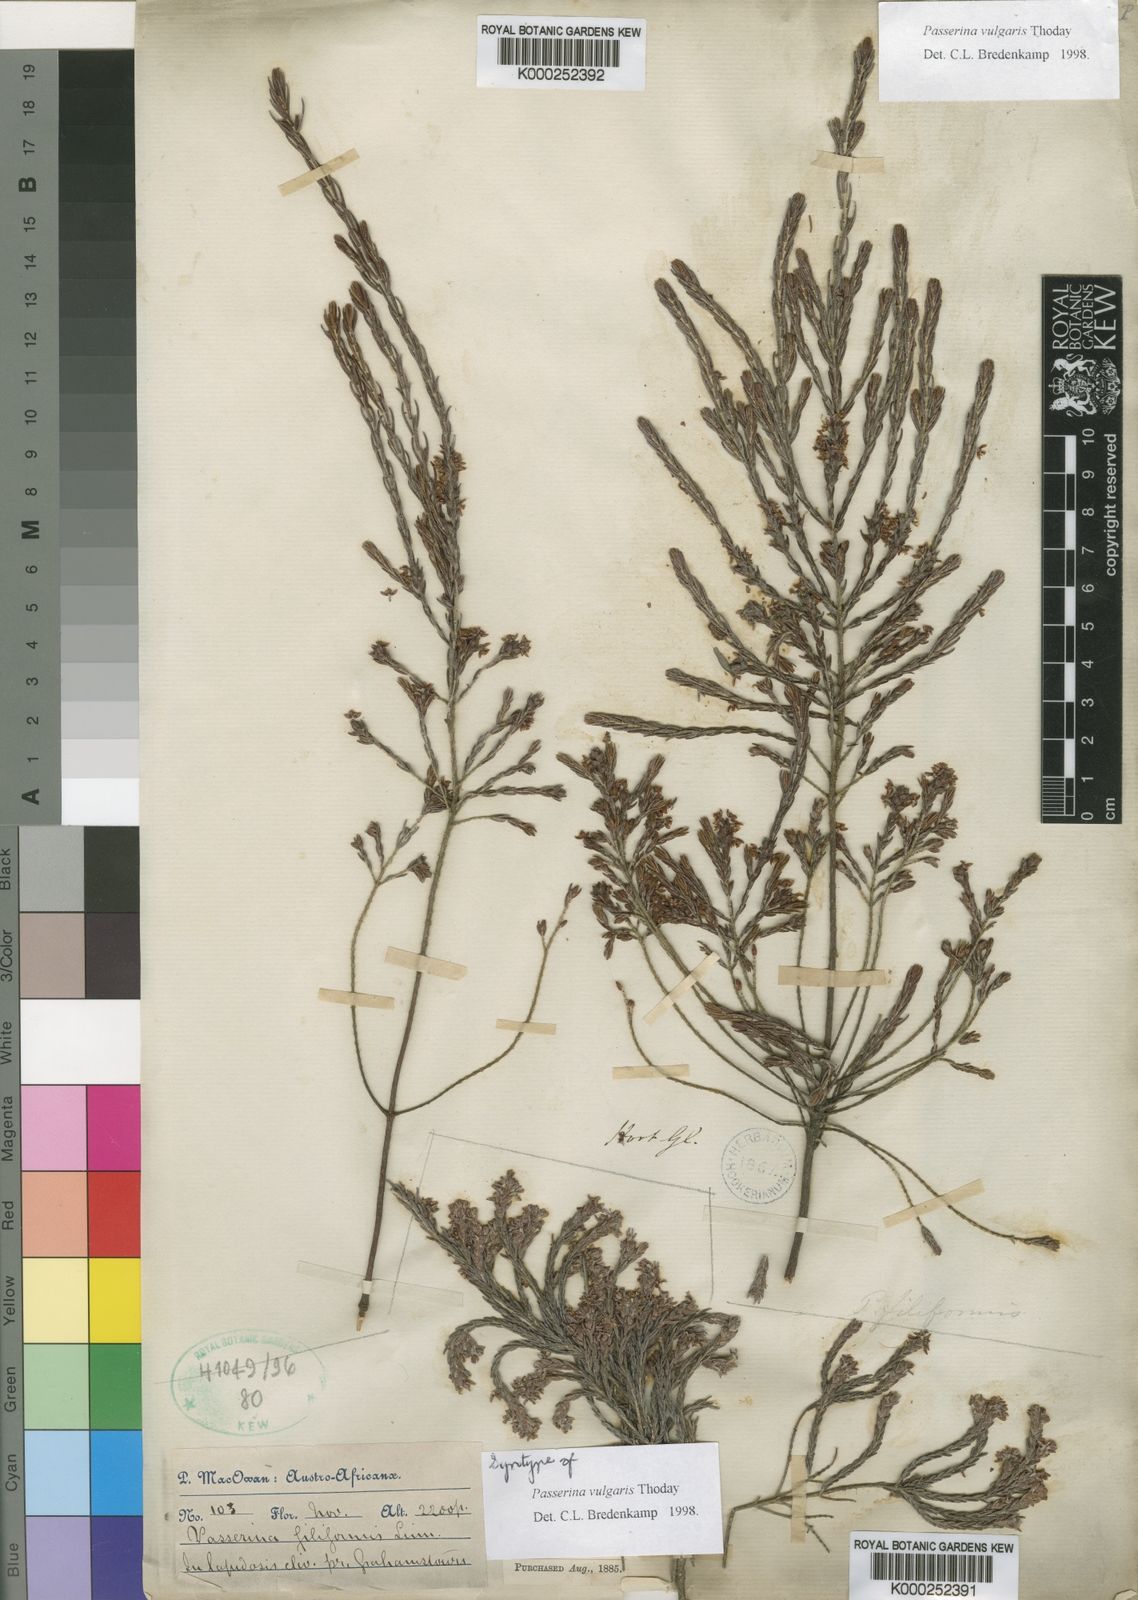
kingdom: Plantae
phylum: Tracheophyta
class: Magnoliopsida
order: Malvales
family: Thymelaeaceae
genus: Passerina
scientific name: Passerina corymbosa
